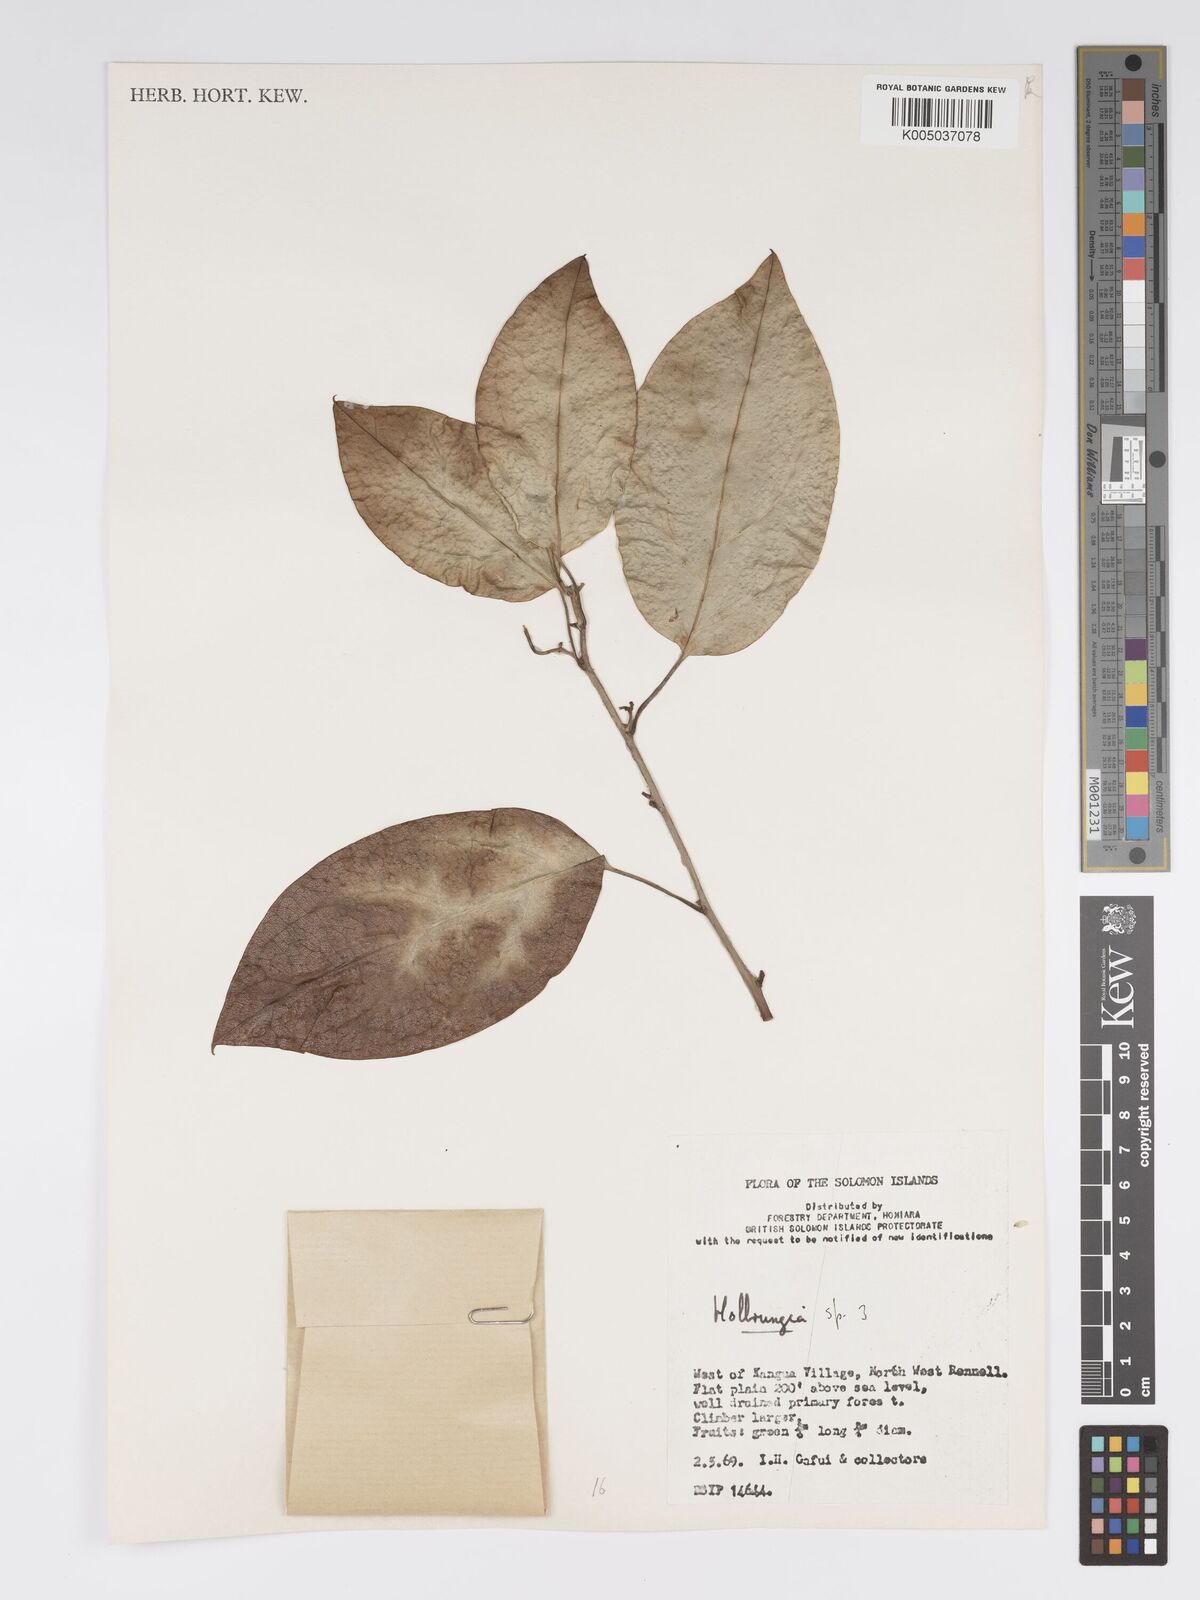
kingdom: Plantae
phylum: Tracheophyta
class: Magnoliopsida
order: Malpighiales
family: Passifloraceae
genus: Passiflora
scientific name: Passiflora aurantioides
